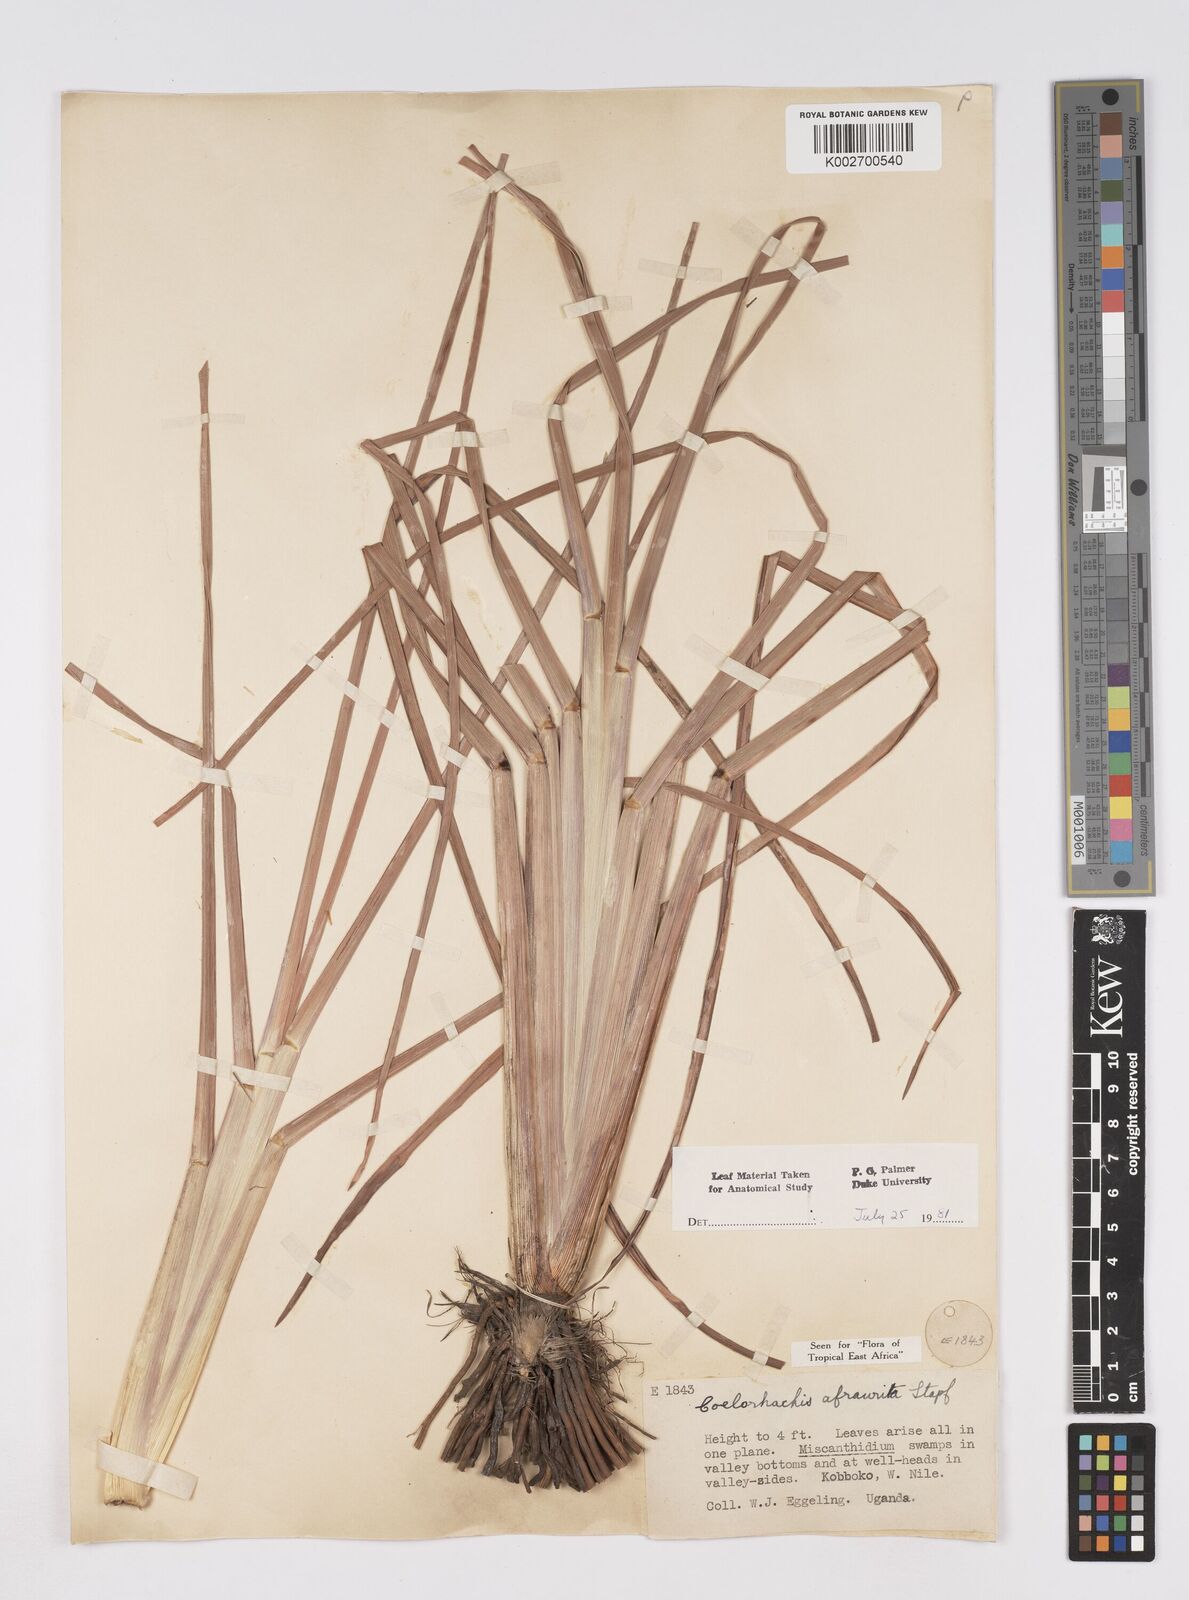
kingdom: Plantae
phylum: Tracheophyta
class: Liliopsida
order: Poales
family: Poaceae
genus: Rottboellia
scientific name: Rottboellia afraurita
